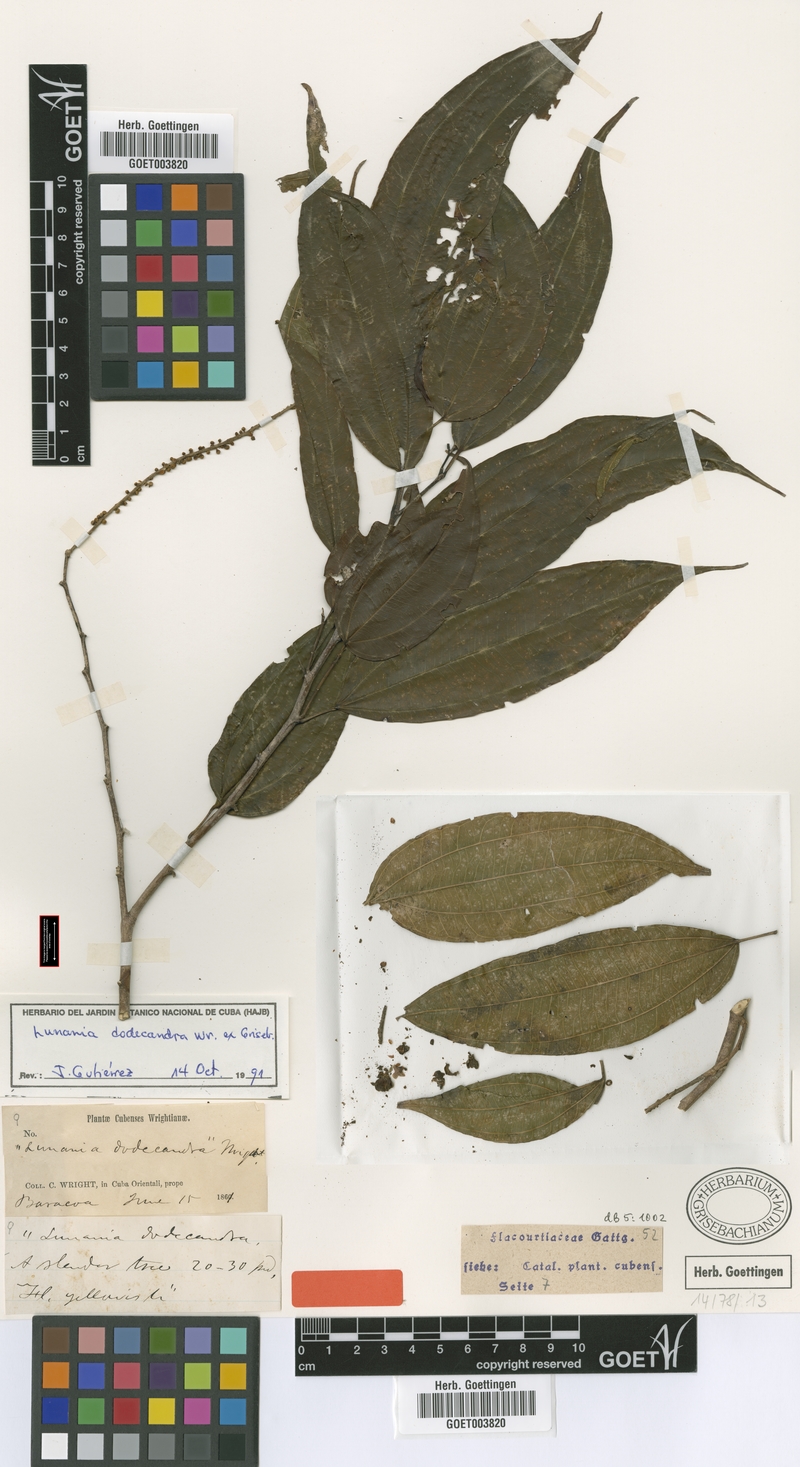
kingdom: Plantae
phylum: Tracheophyta
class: Magnoliopsida
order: Malpighiales
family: Salicaceae
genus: Lunania
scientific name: Lunania dodecandra
